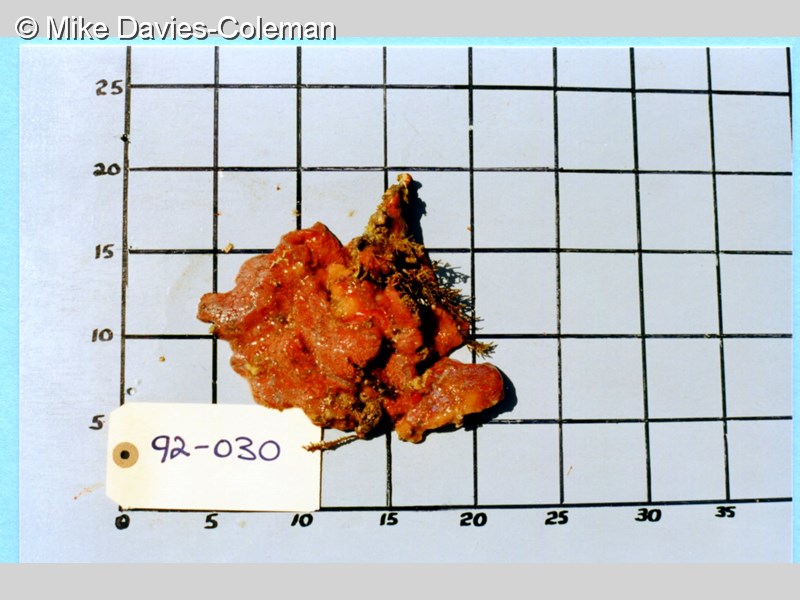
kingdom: Animalia
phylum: Chordata
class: Ascidiacea
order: Aplousobranchia
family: Holozoidae
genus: Sycozoa
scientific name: Sycozoa
